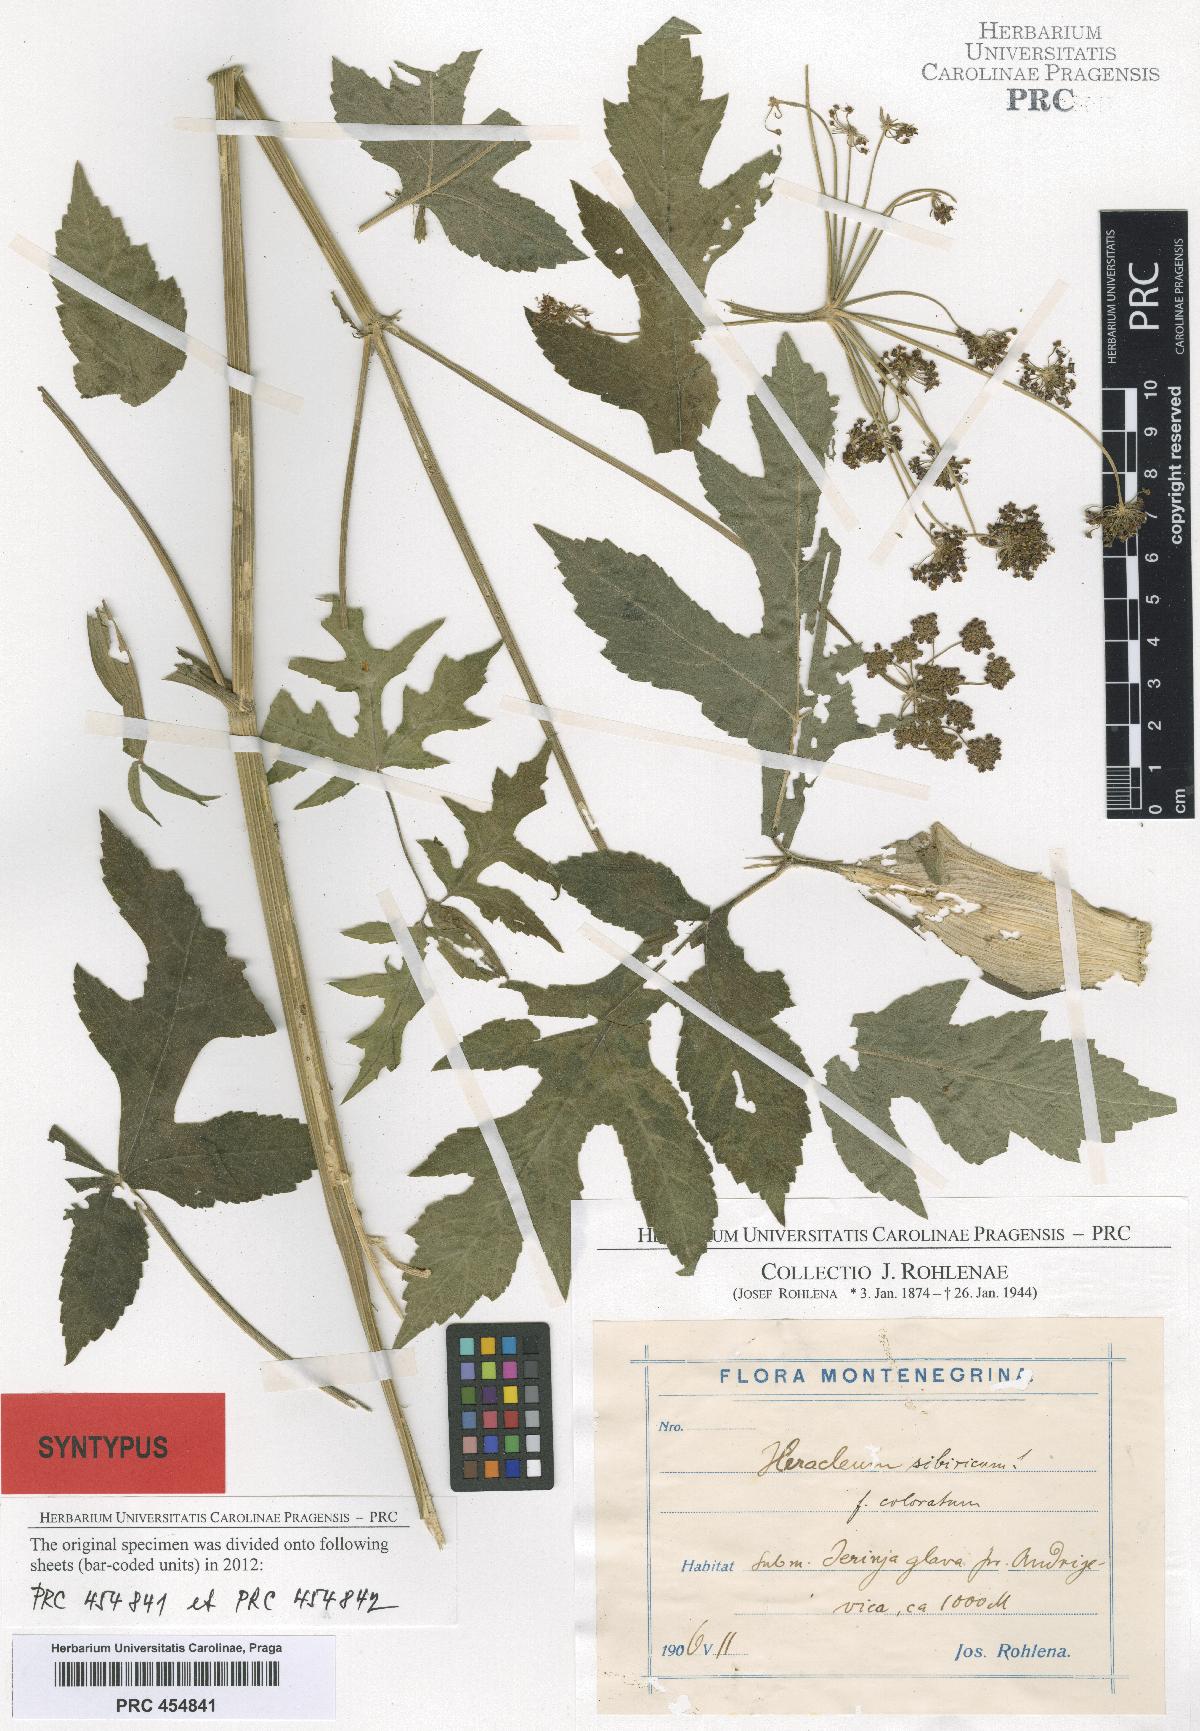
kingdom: Plantae
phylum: Tracheophyta
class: Magnoliopsida
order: Apiales
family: Apiaceae
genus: Heracleum
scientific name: Heracleum sphondylium
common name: Hogweed
